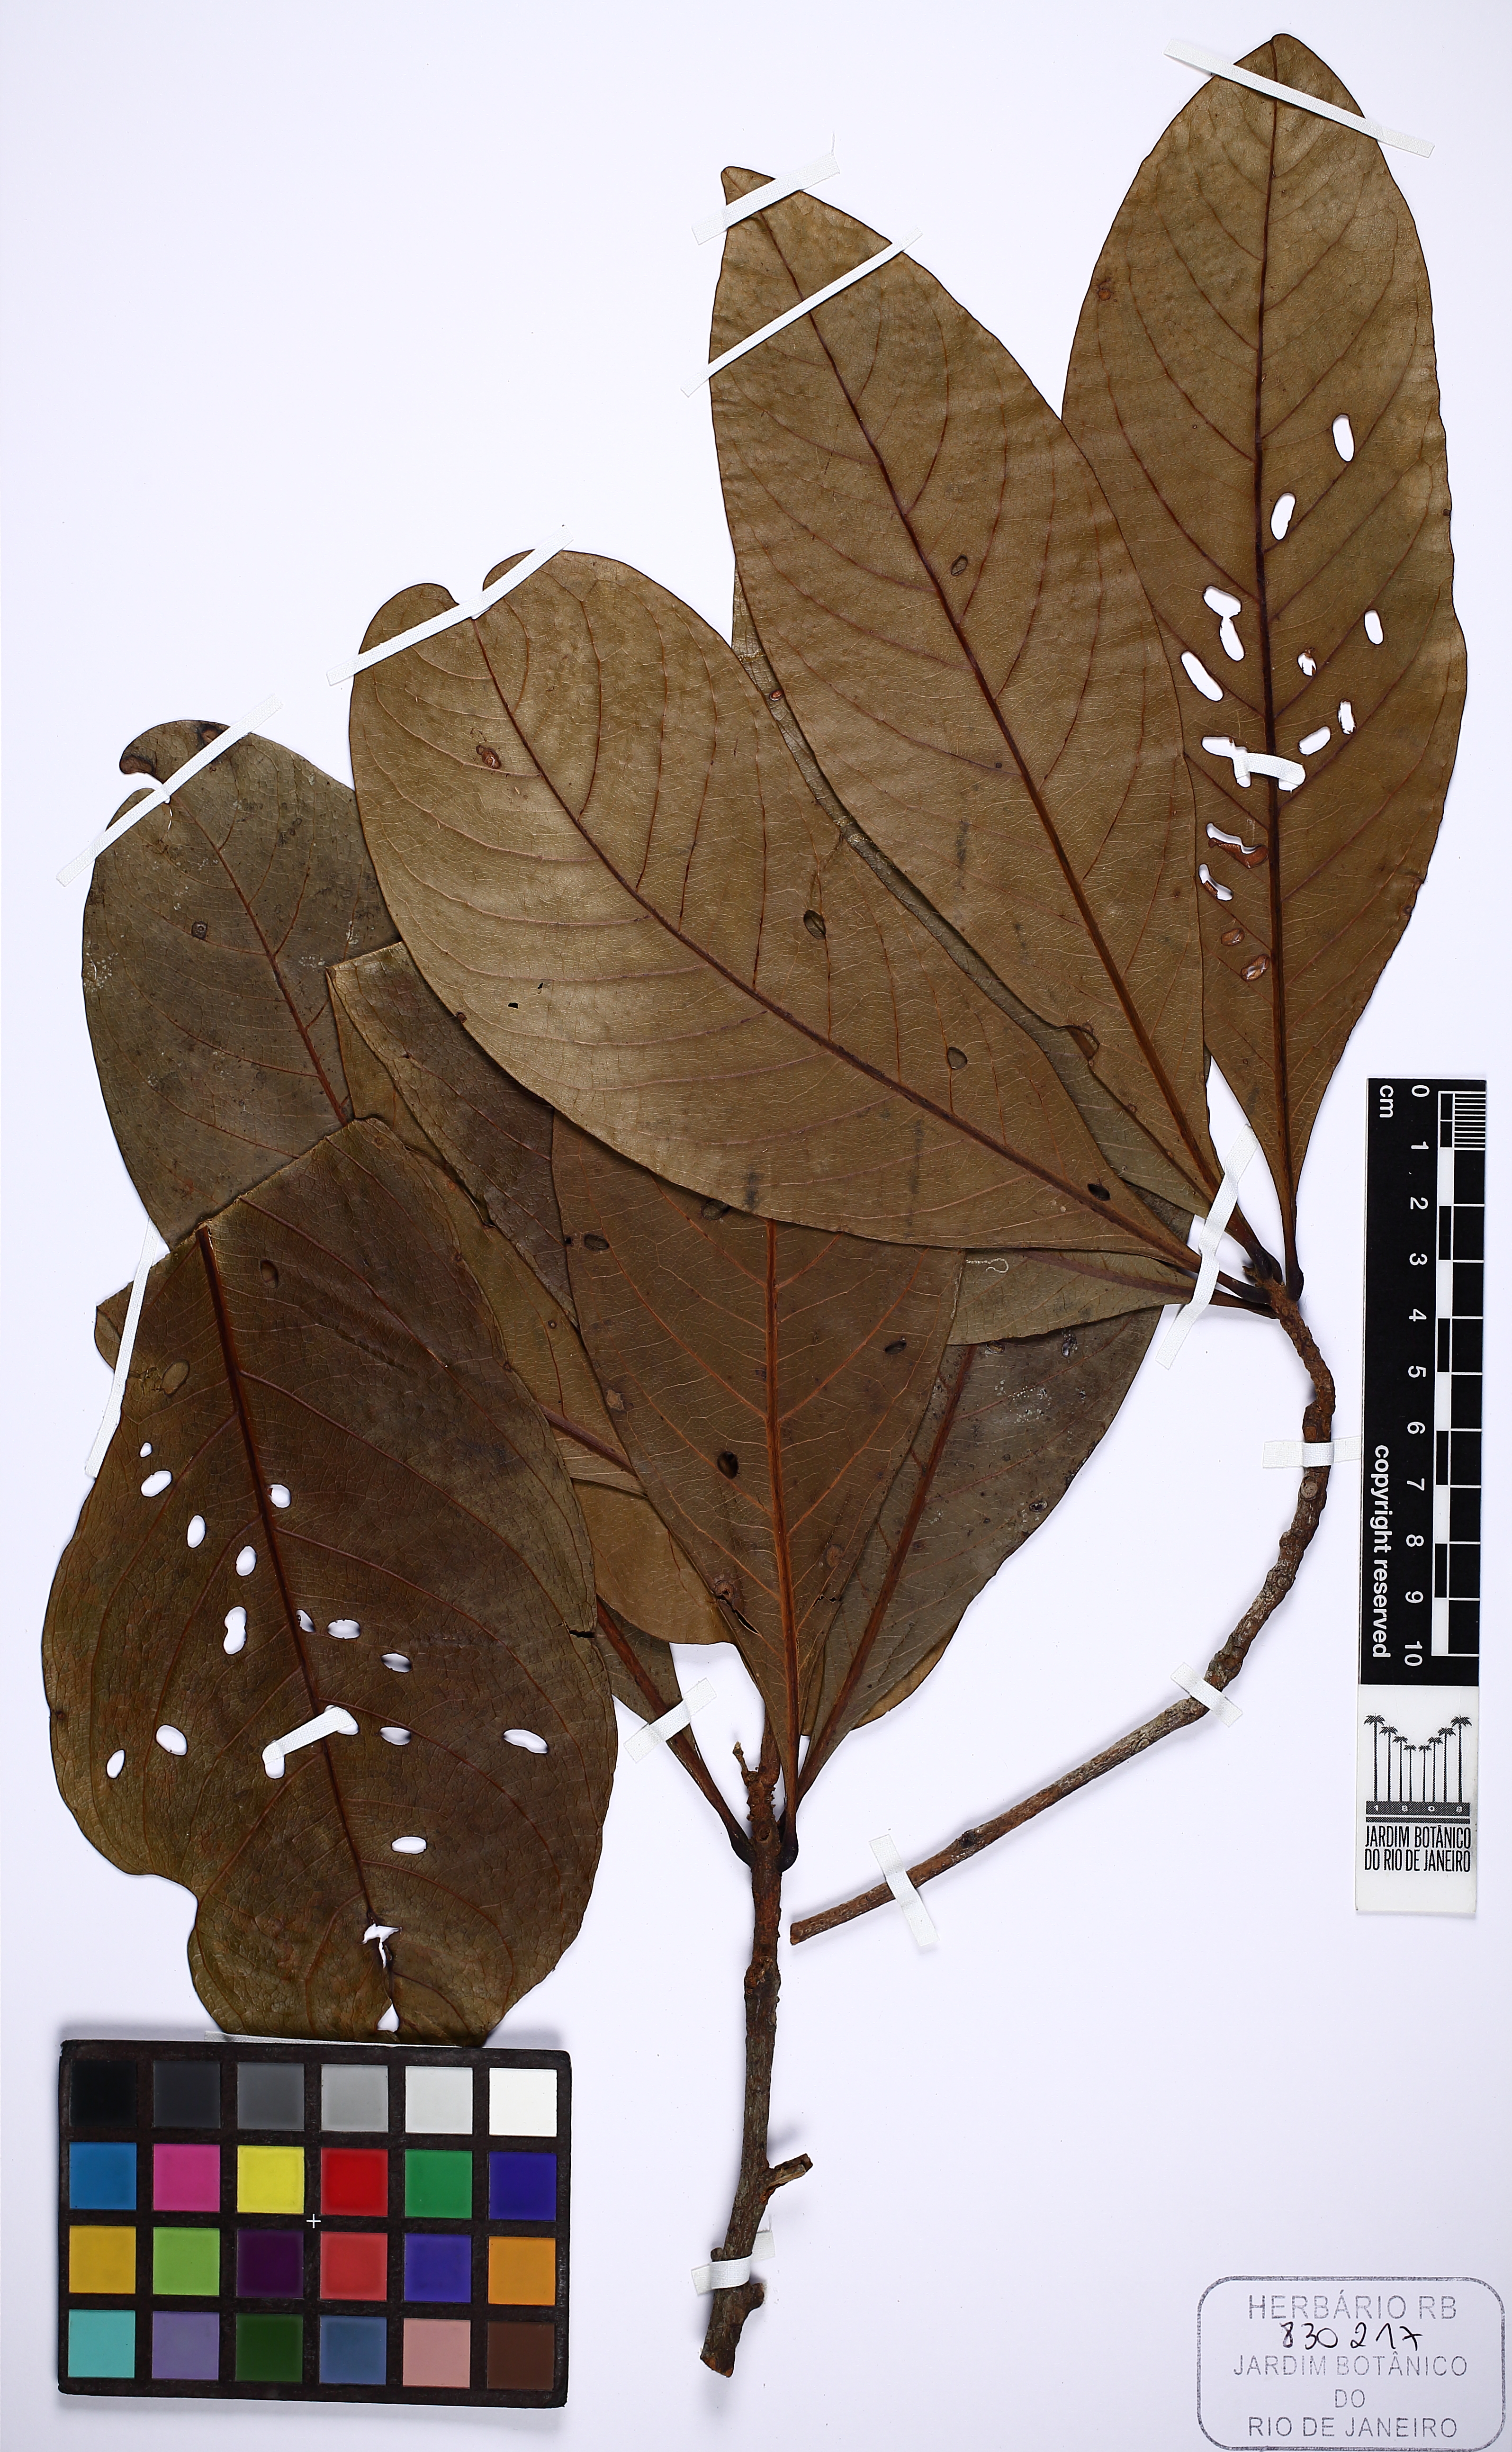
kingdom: Plantae
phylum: Tracheophyta
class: Magnoliopsida
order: Laurales
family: Lauraceae
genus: Mezilaurus
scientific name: Mezilaurus ita-uba
